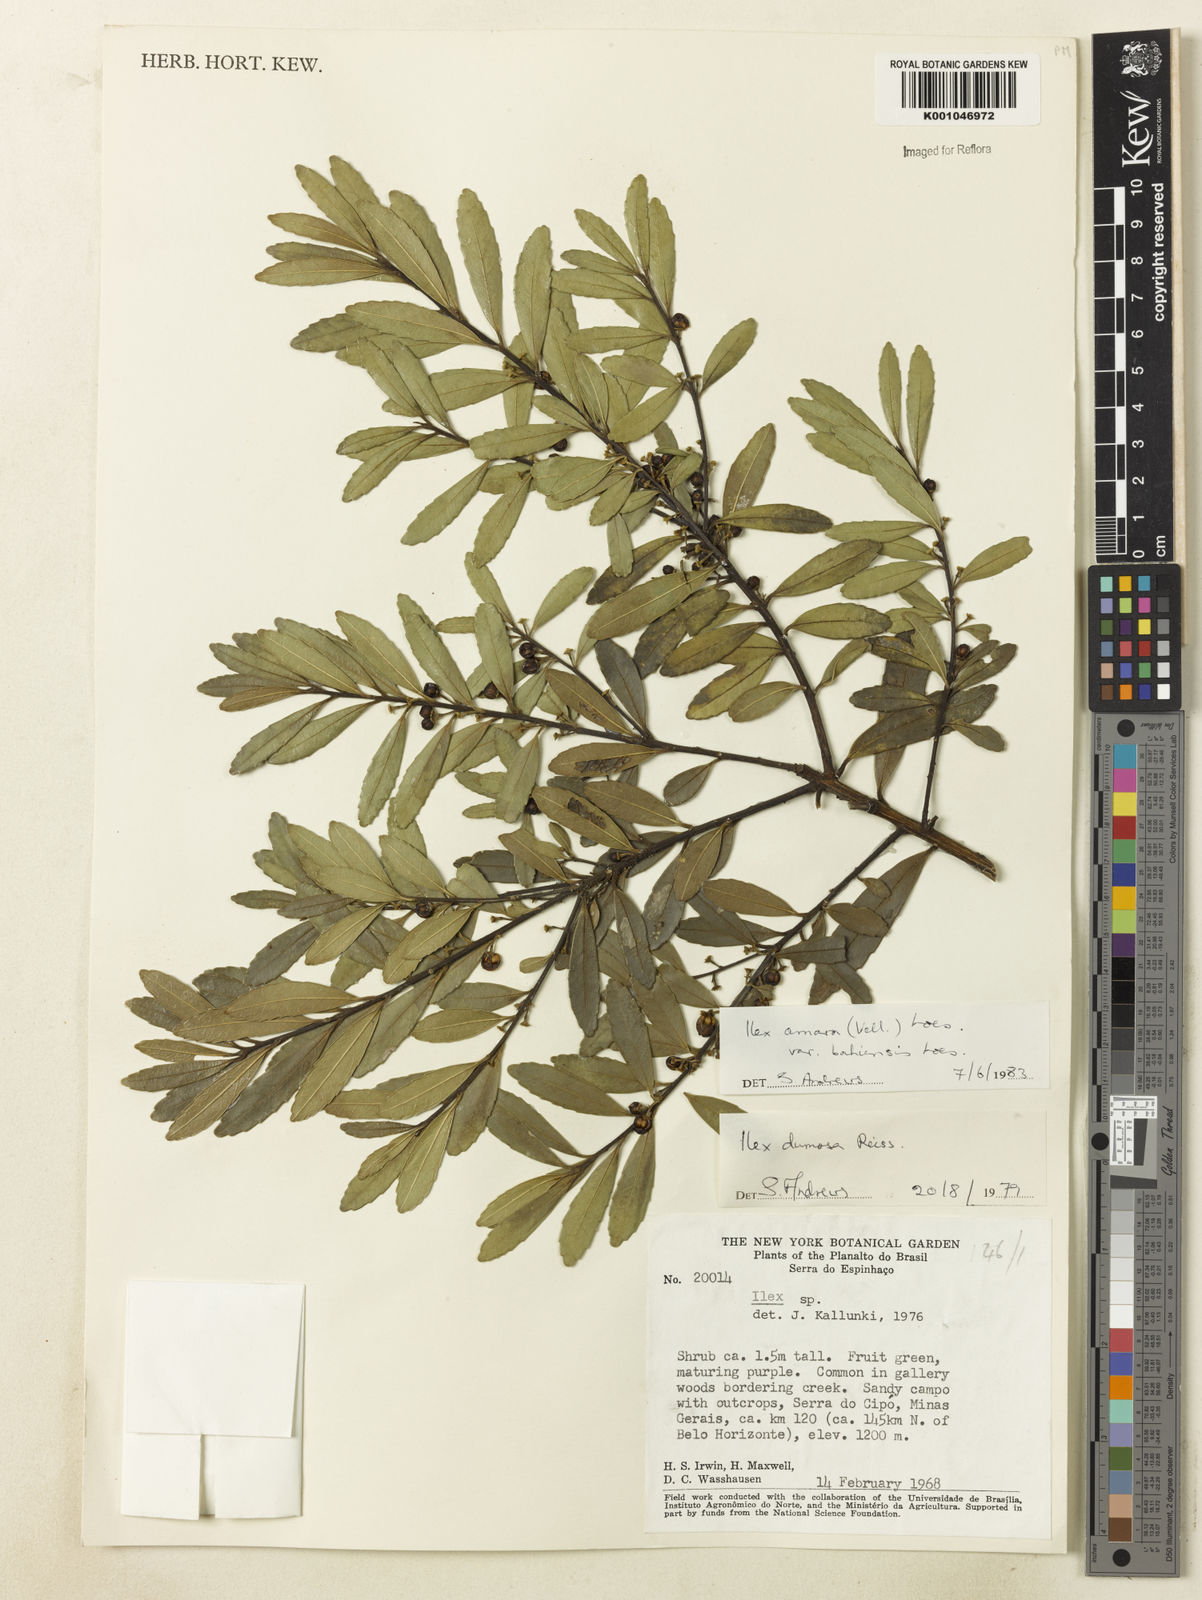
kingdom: Plantae
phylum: Tracheophyta
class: Magnoliopsida
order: Aquifoliales
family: Aquifoliaceae
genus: Ilex
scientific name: Ilex dumosa
